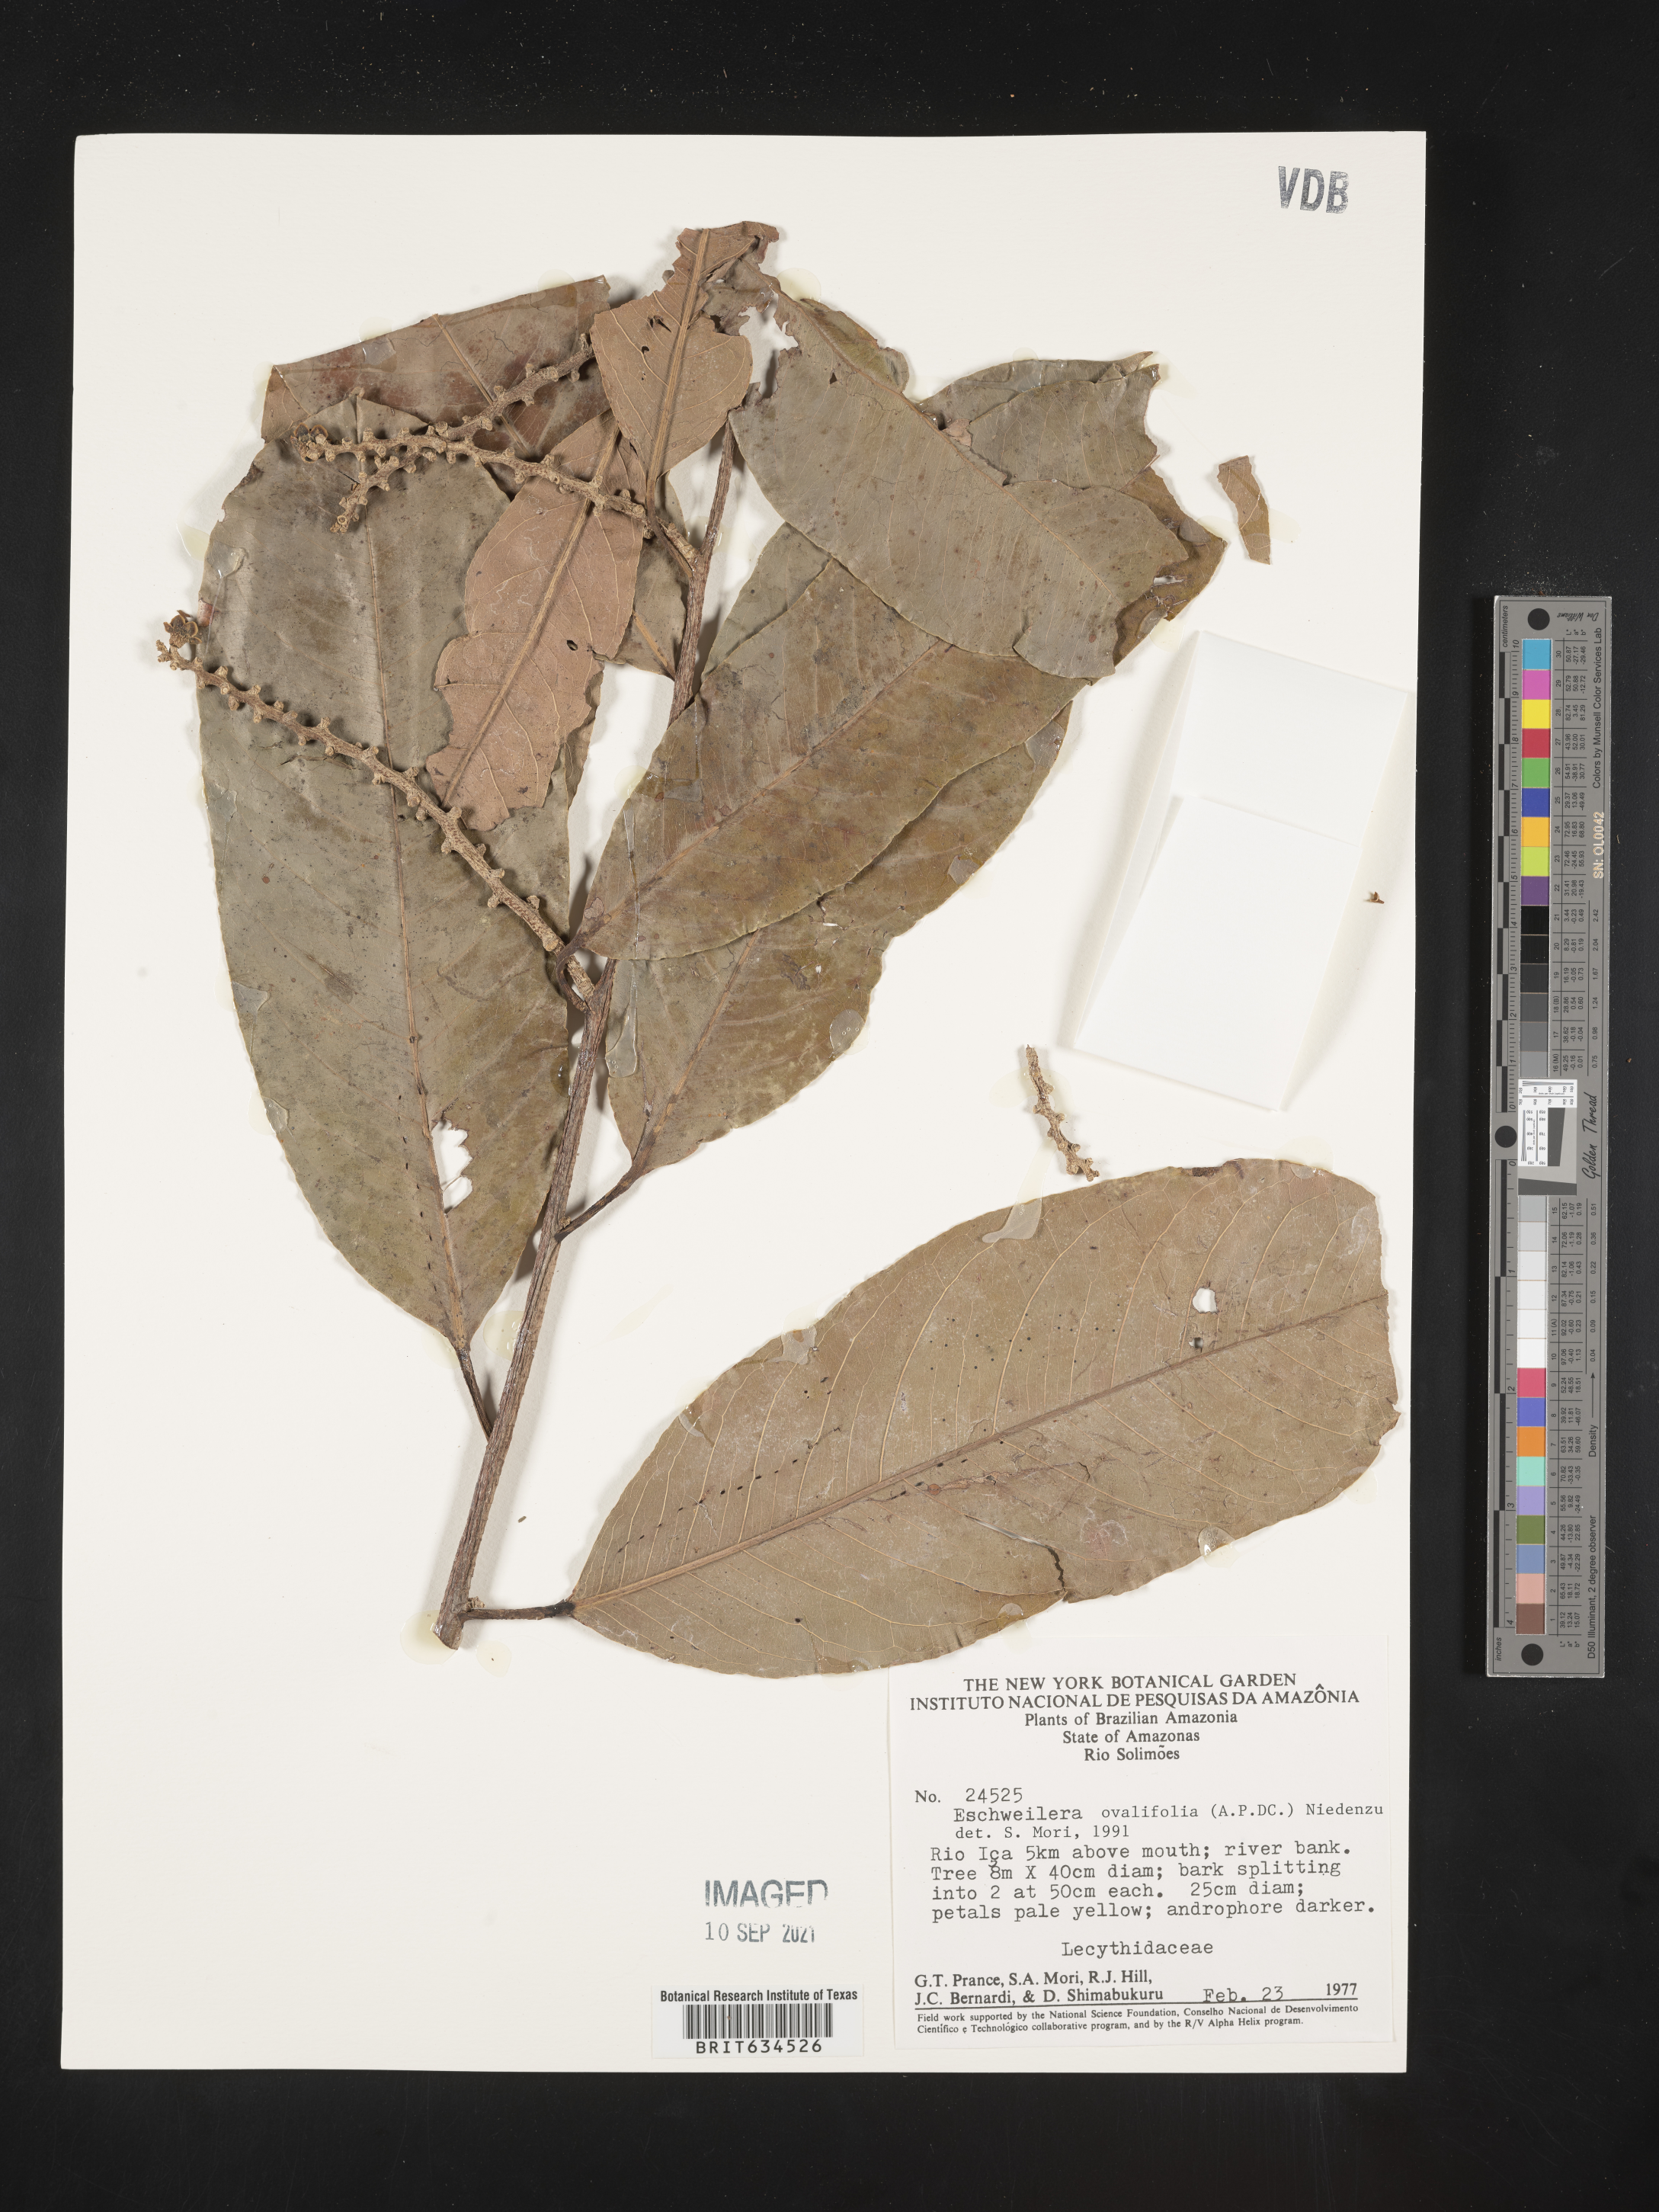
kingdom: Plantae
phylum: Tracheophyta
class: Magnoliopsida
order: Ericales
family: Lecythidaceae
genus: Eschweilera
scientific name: Eschweilera
